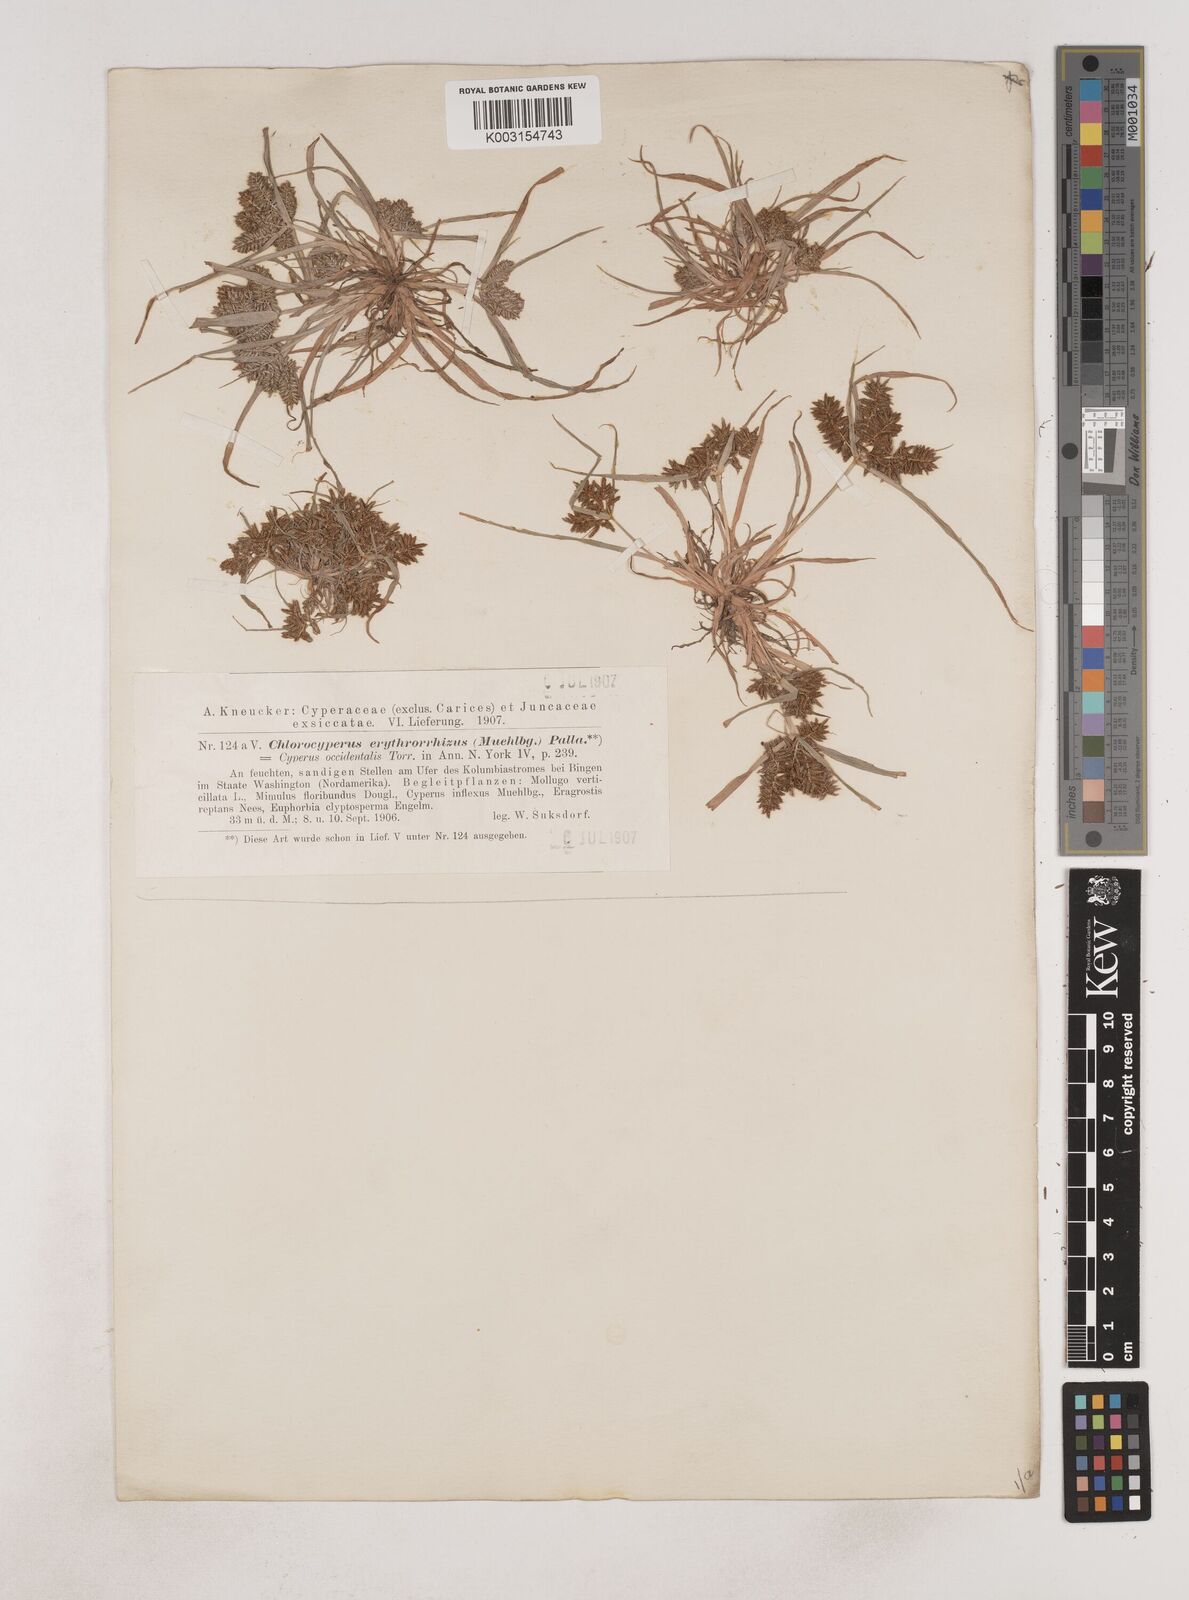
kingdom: Plantae
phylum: Tracheophyta
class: Liliopsida
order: Poales
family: Cyperaceae
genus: Cyperus
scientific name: Cyperus erythrorhizos
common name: Red-root flat sedge
